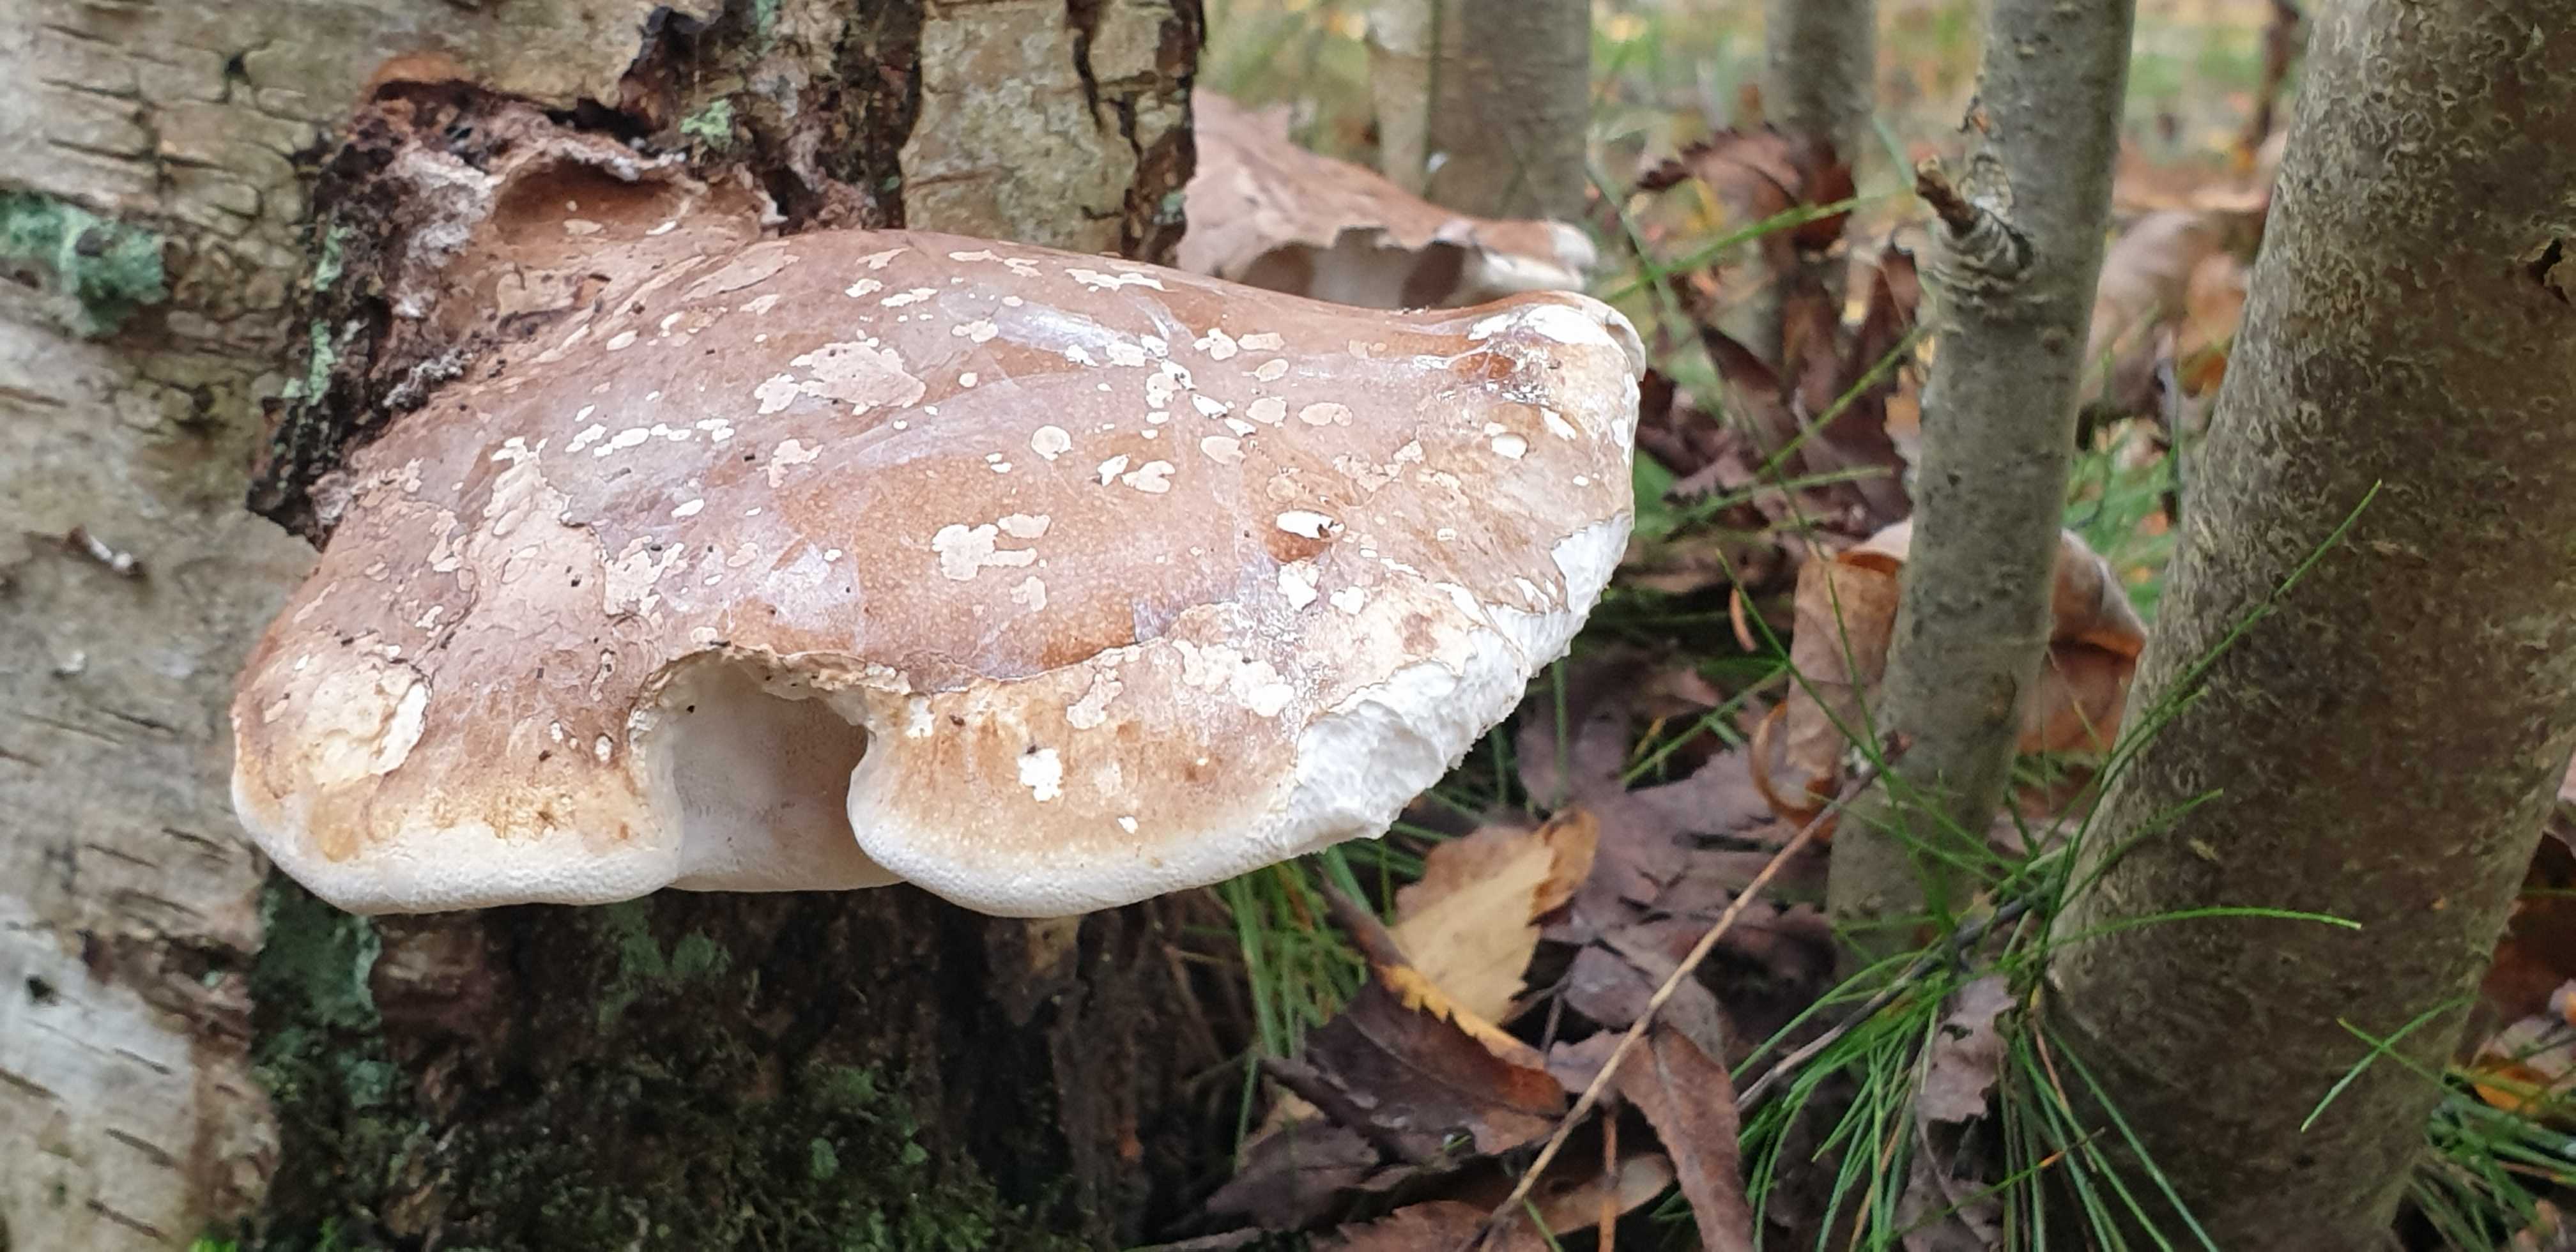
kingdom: Fungi
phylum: Basidiomycota
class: Agaricomycetes
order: Polyporales
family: Fomitopsidaceae
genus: Fomitopsis
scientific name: Fomitopsis betulina
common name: birkeporesvamp
